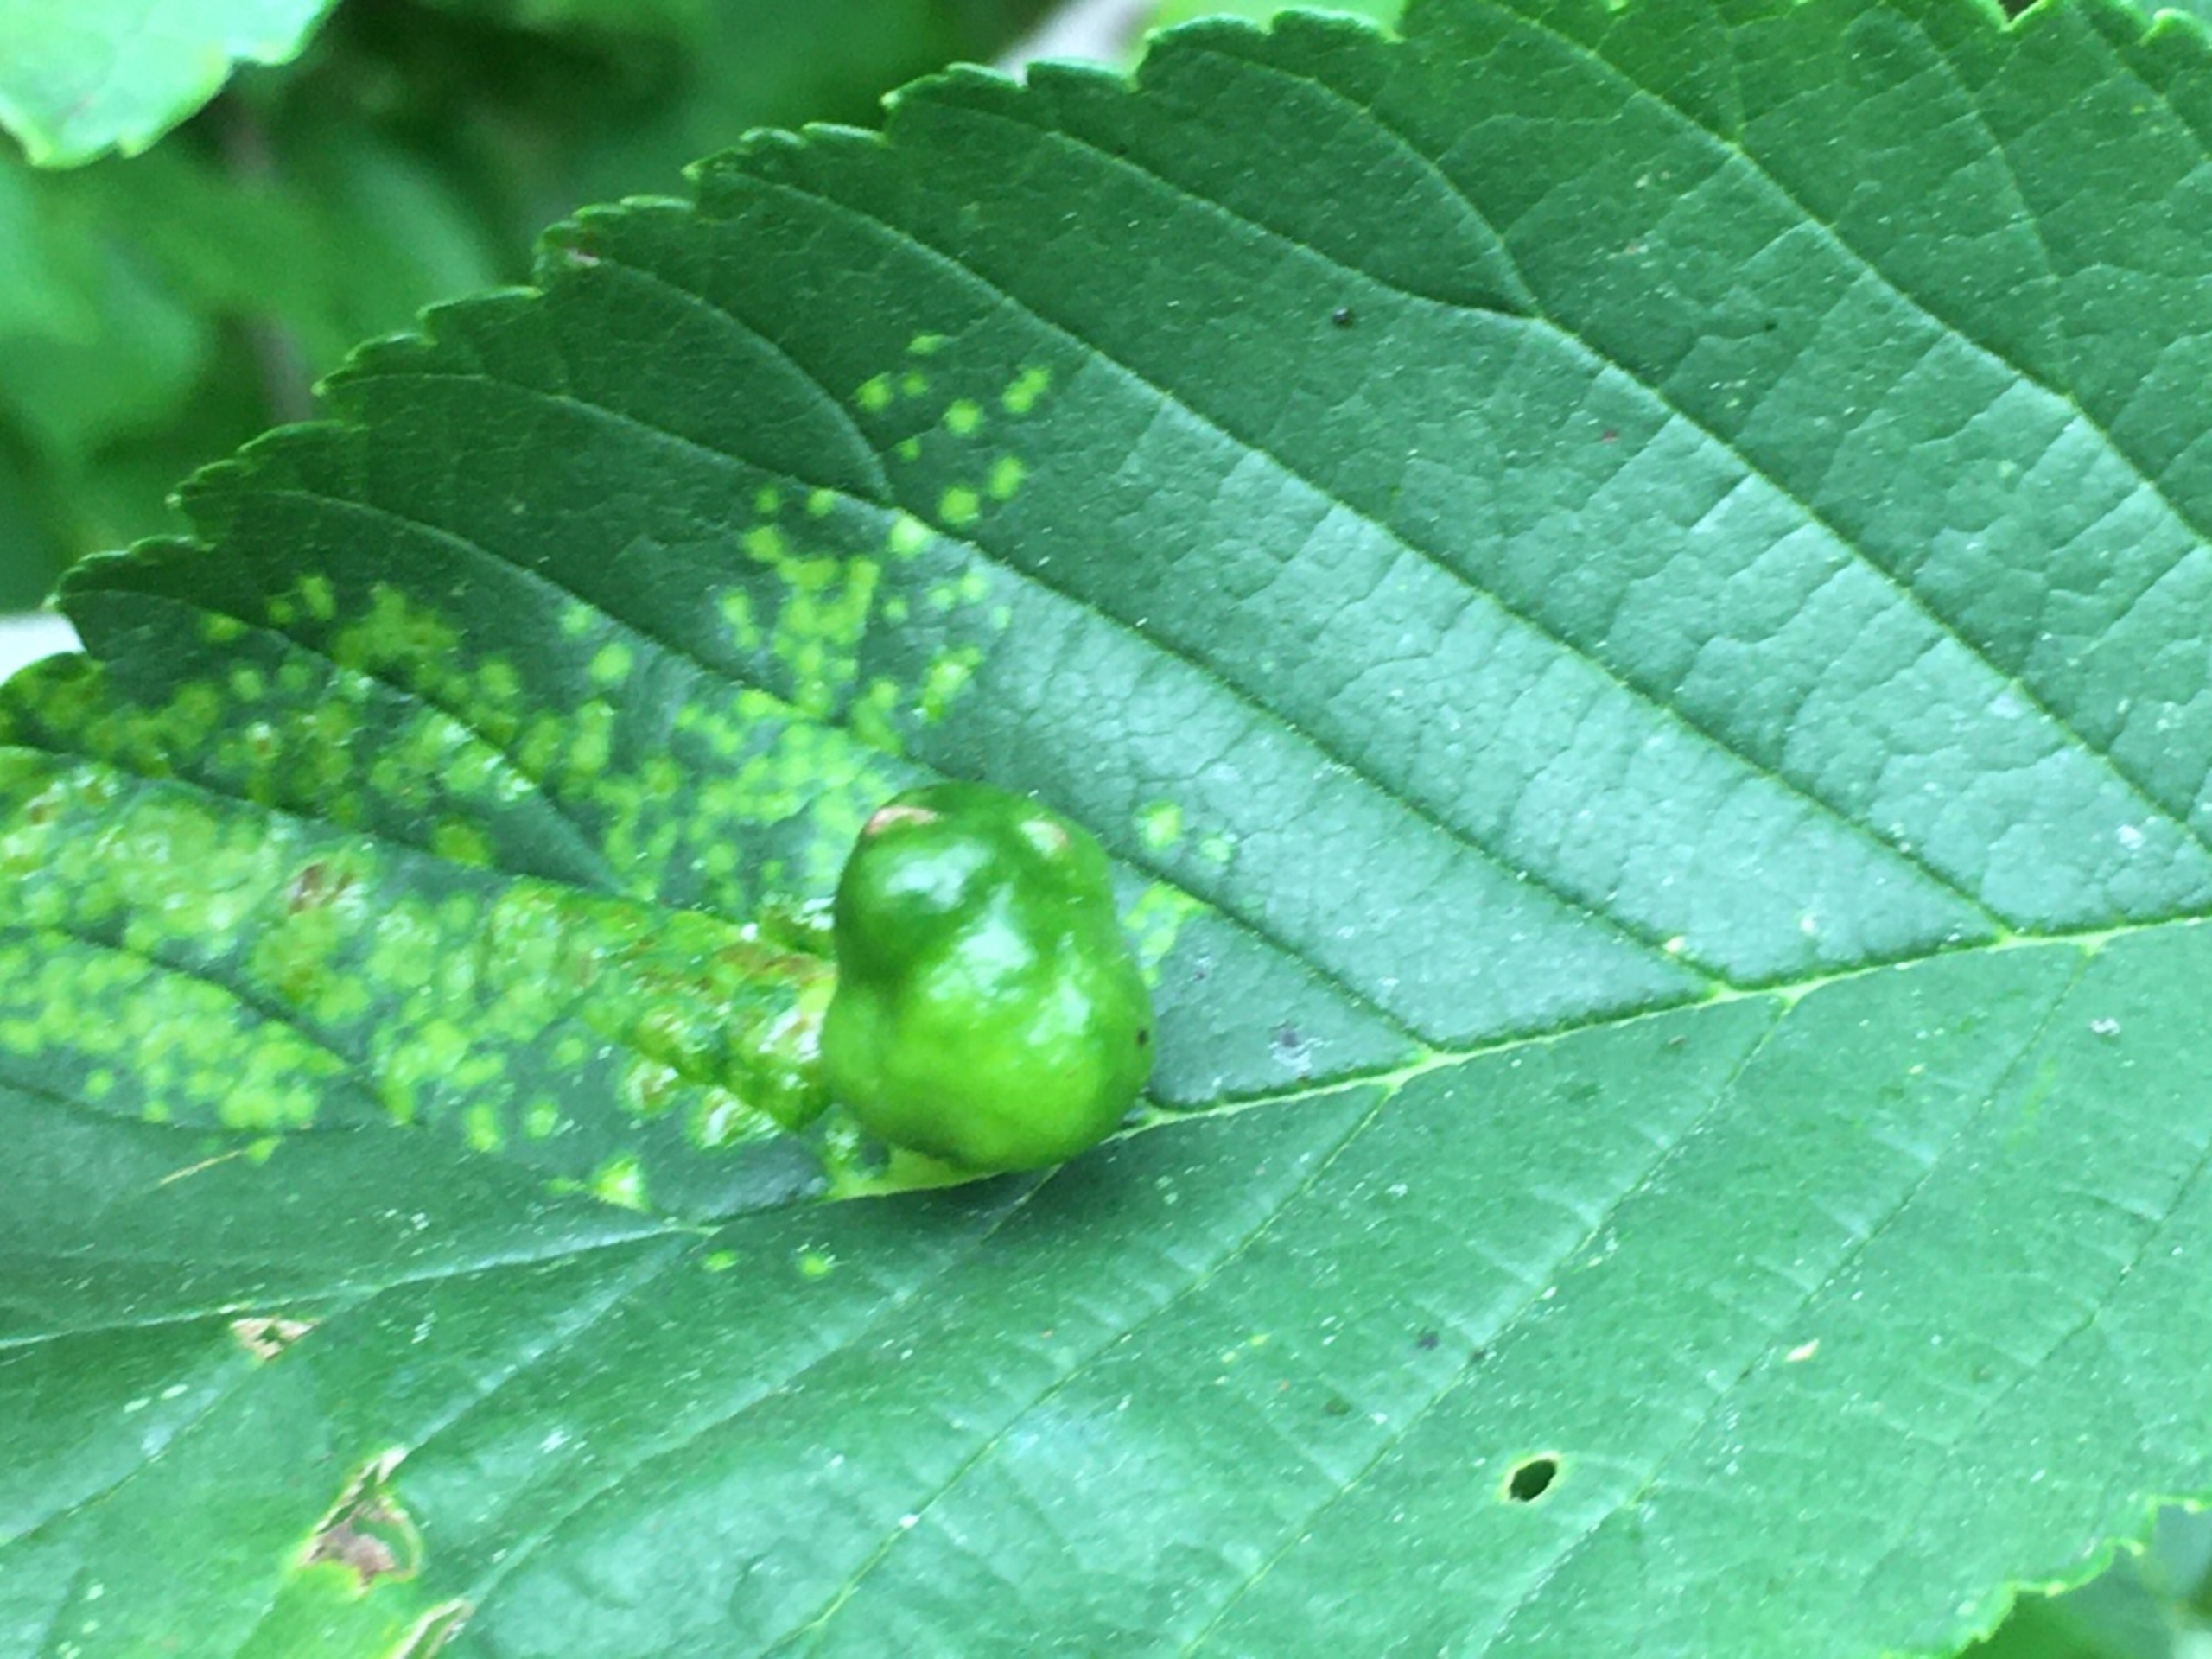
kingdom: Animalia
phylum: Arthropoda
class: Insecta
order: Hemiptera
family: Aphididae
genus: Tetraneura
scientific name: Tetraneura ulmi
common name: Elmegallelus
